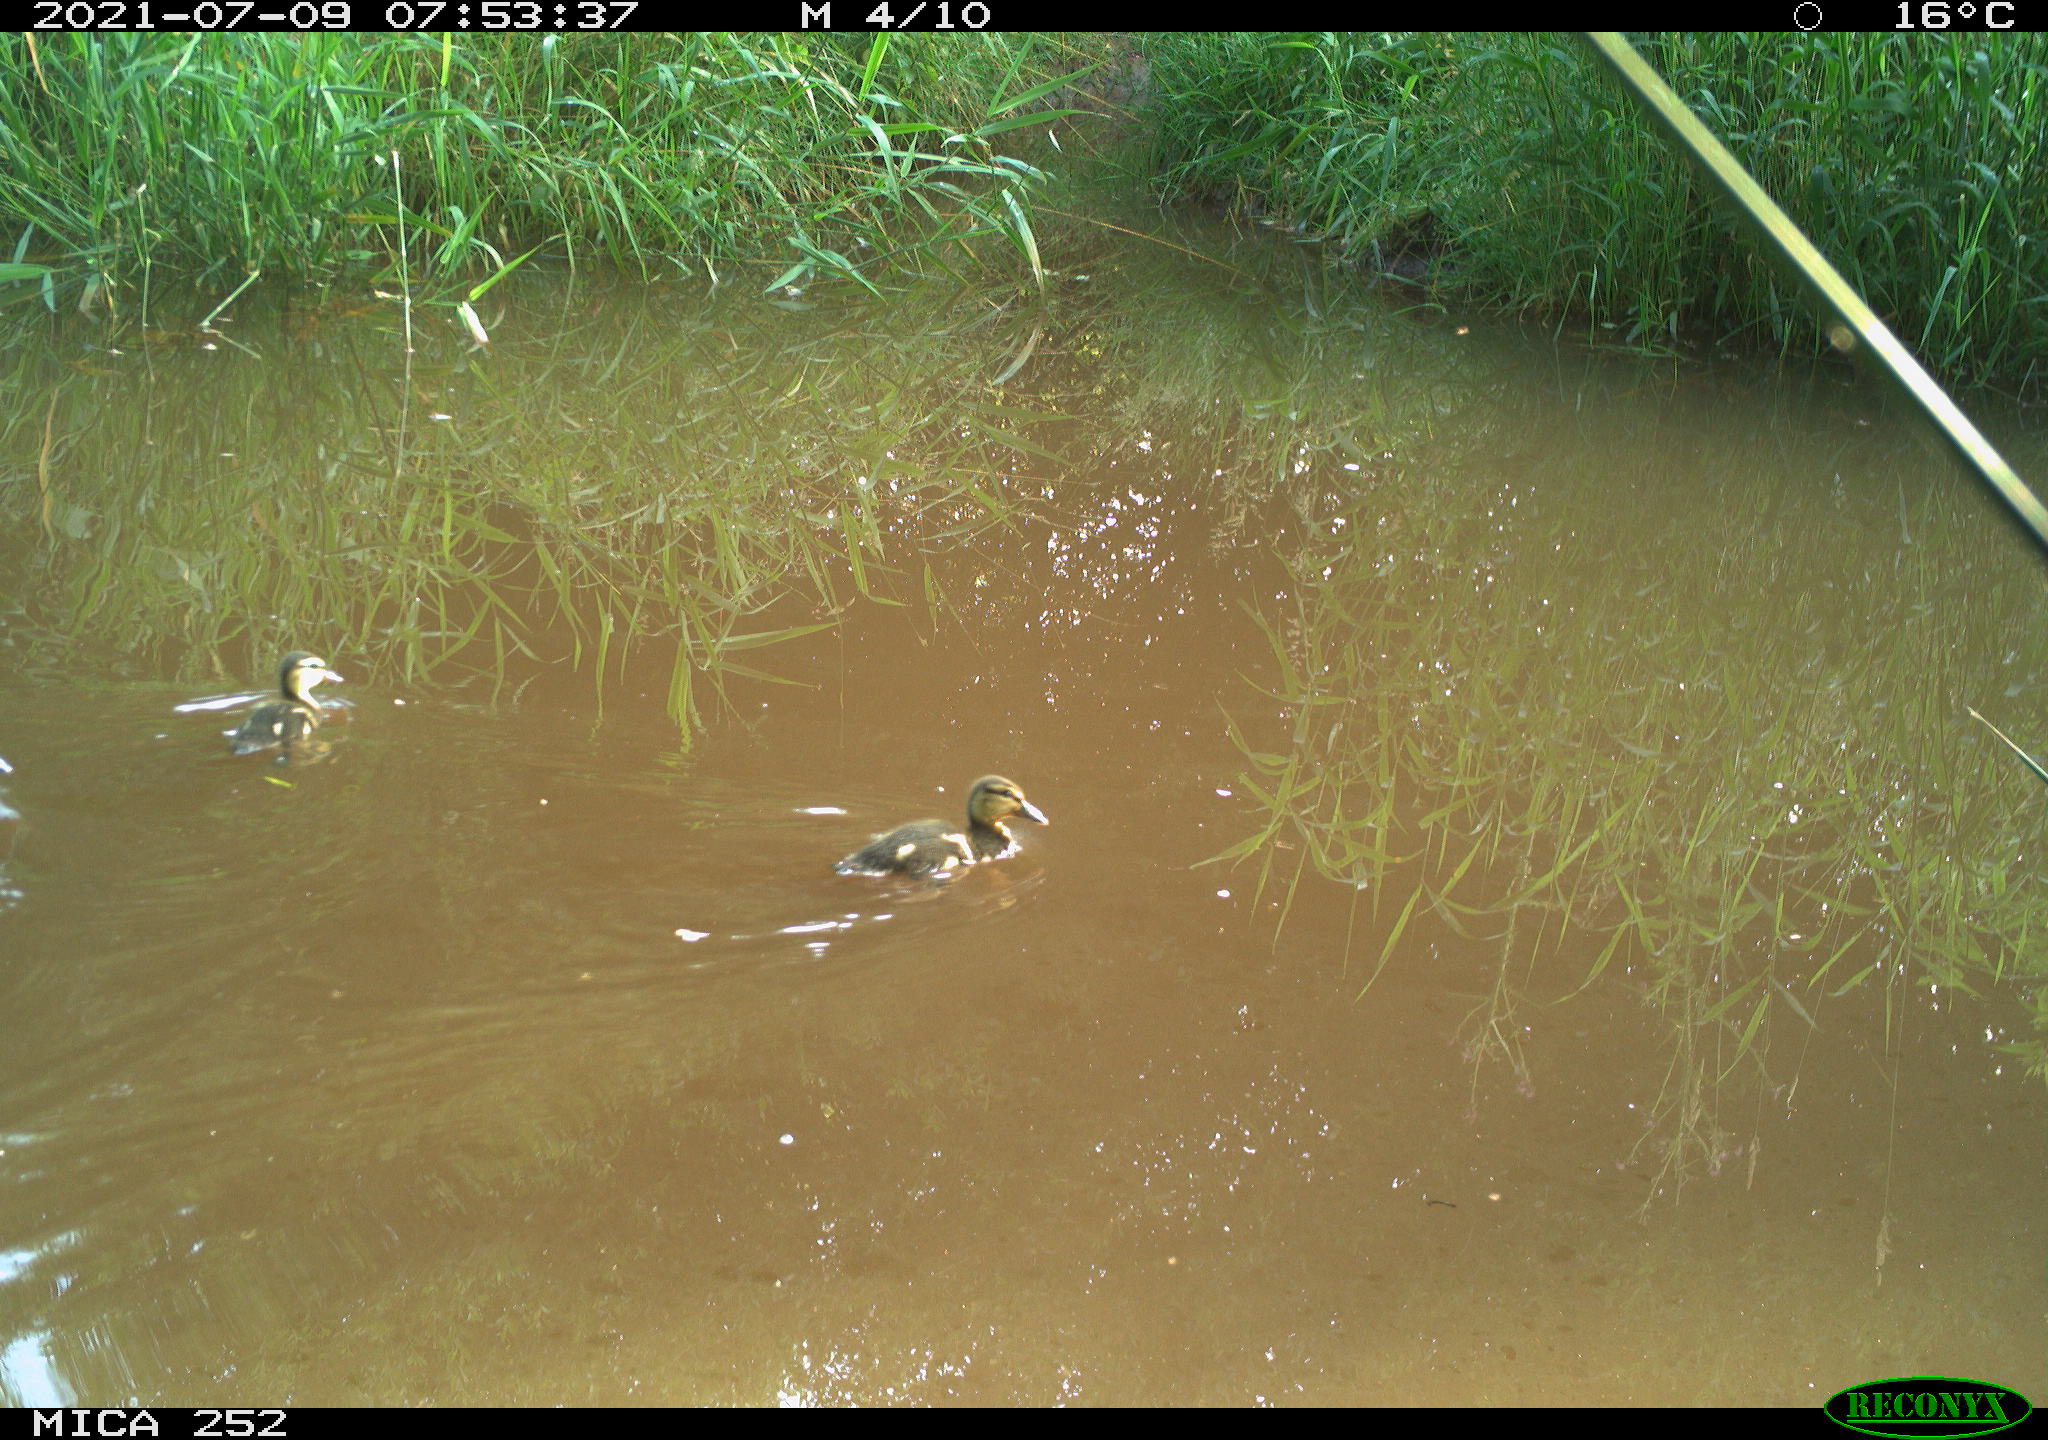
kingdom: Animalia
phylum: Chordata
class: Aves
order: Anseriformes
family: Anatidae
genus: Anas
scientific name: Anas platyrhynchos
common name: Mallard
